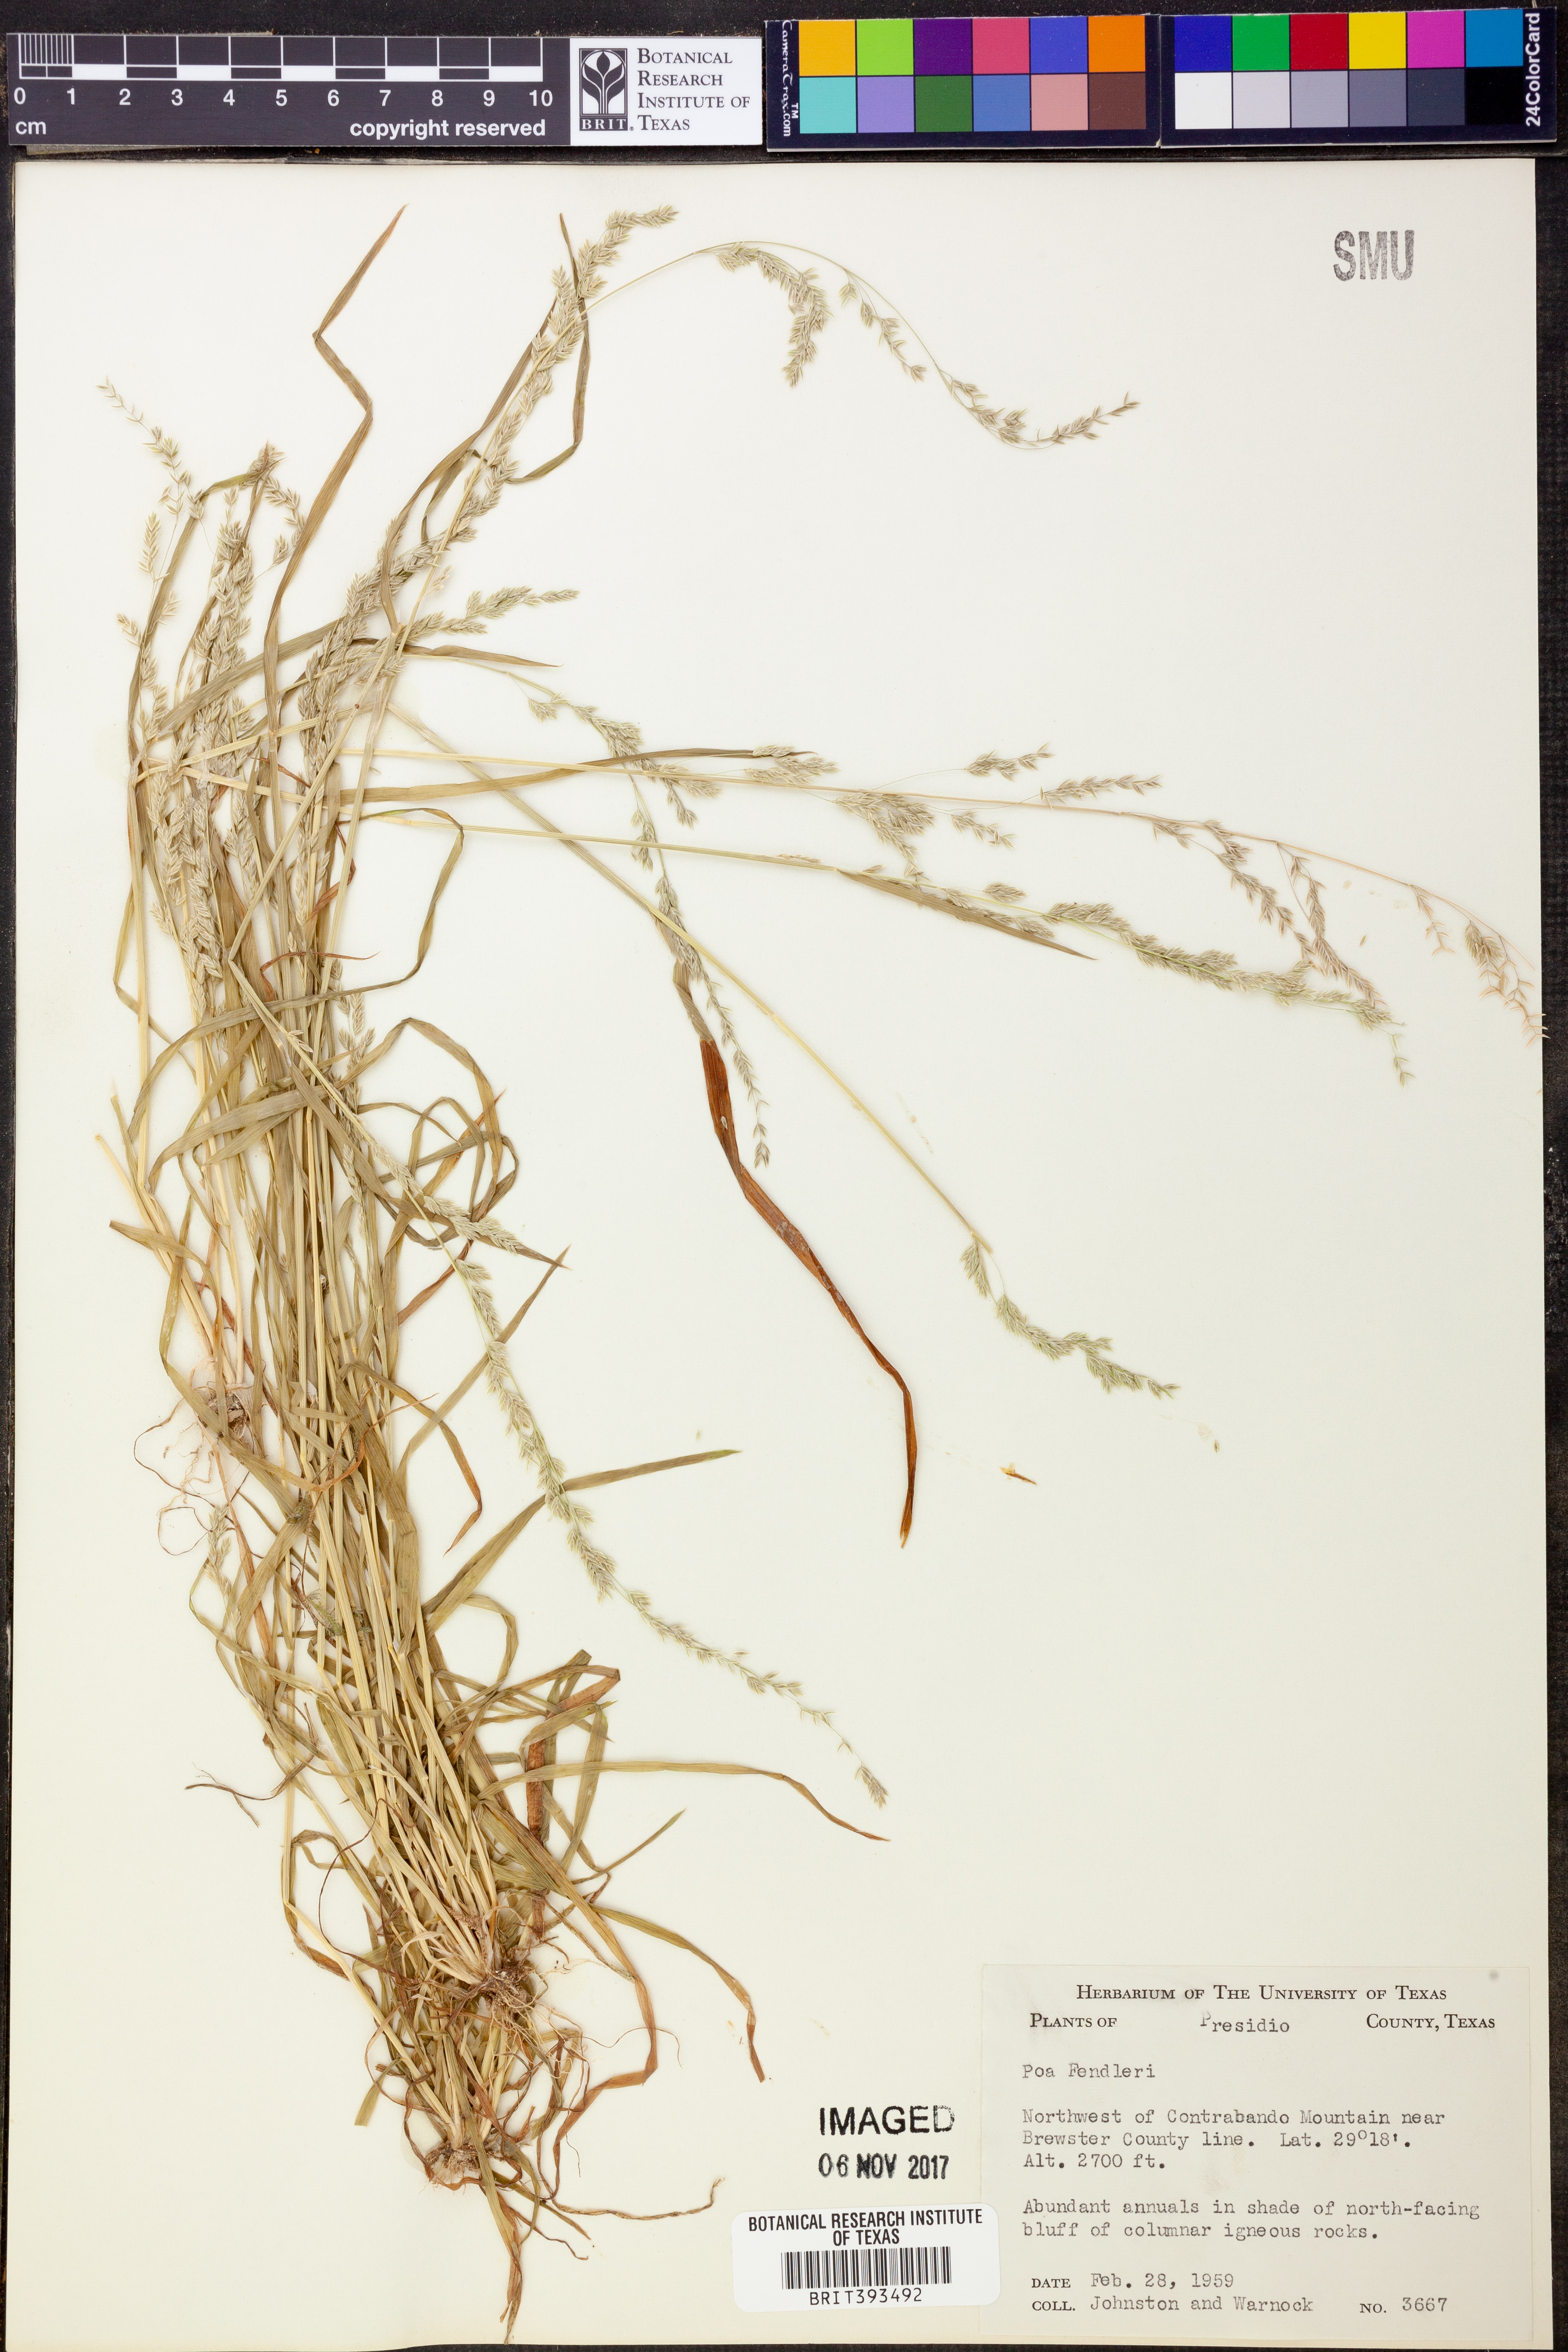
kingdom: Plantae
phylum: Tracheophyta
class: Liliopsida
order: Poales
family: Poaceae
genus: Poa
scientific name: Poa fendleriana
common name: Mutton bluegrass
